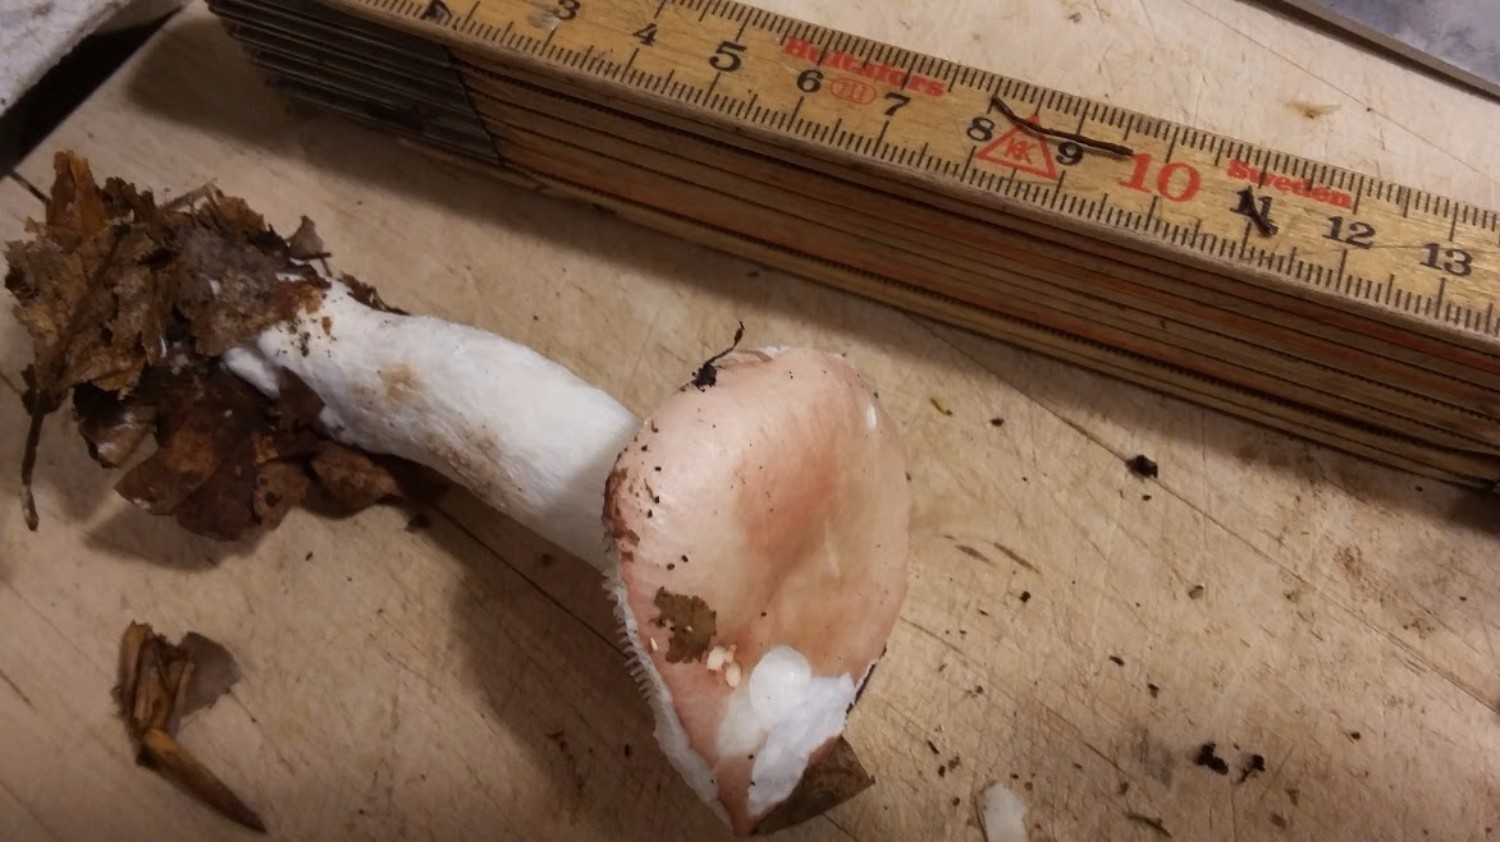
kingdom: Fungi
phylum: Basidiomycota
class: Agaricomycetes
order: Russulales
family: Russulaceae
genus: Russula
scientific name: Russula betularum
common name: bleg gift-skørhat
